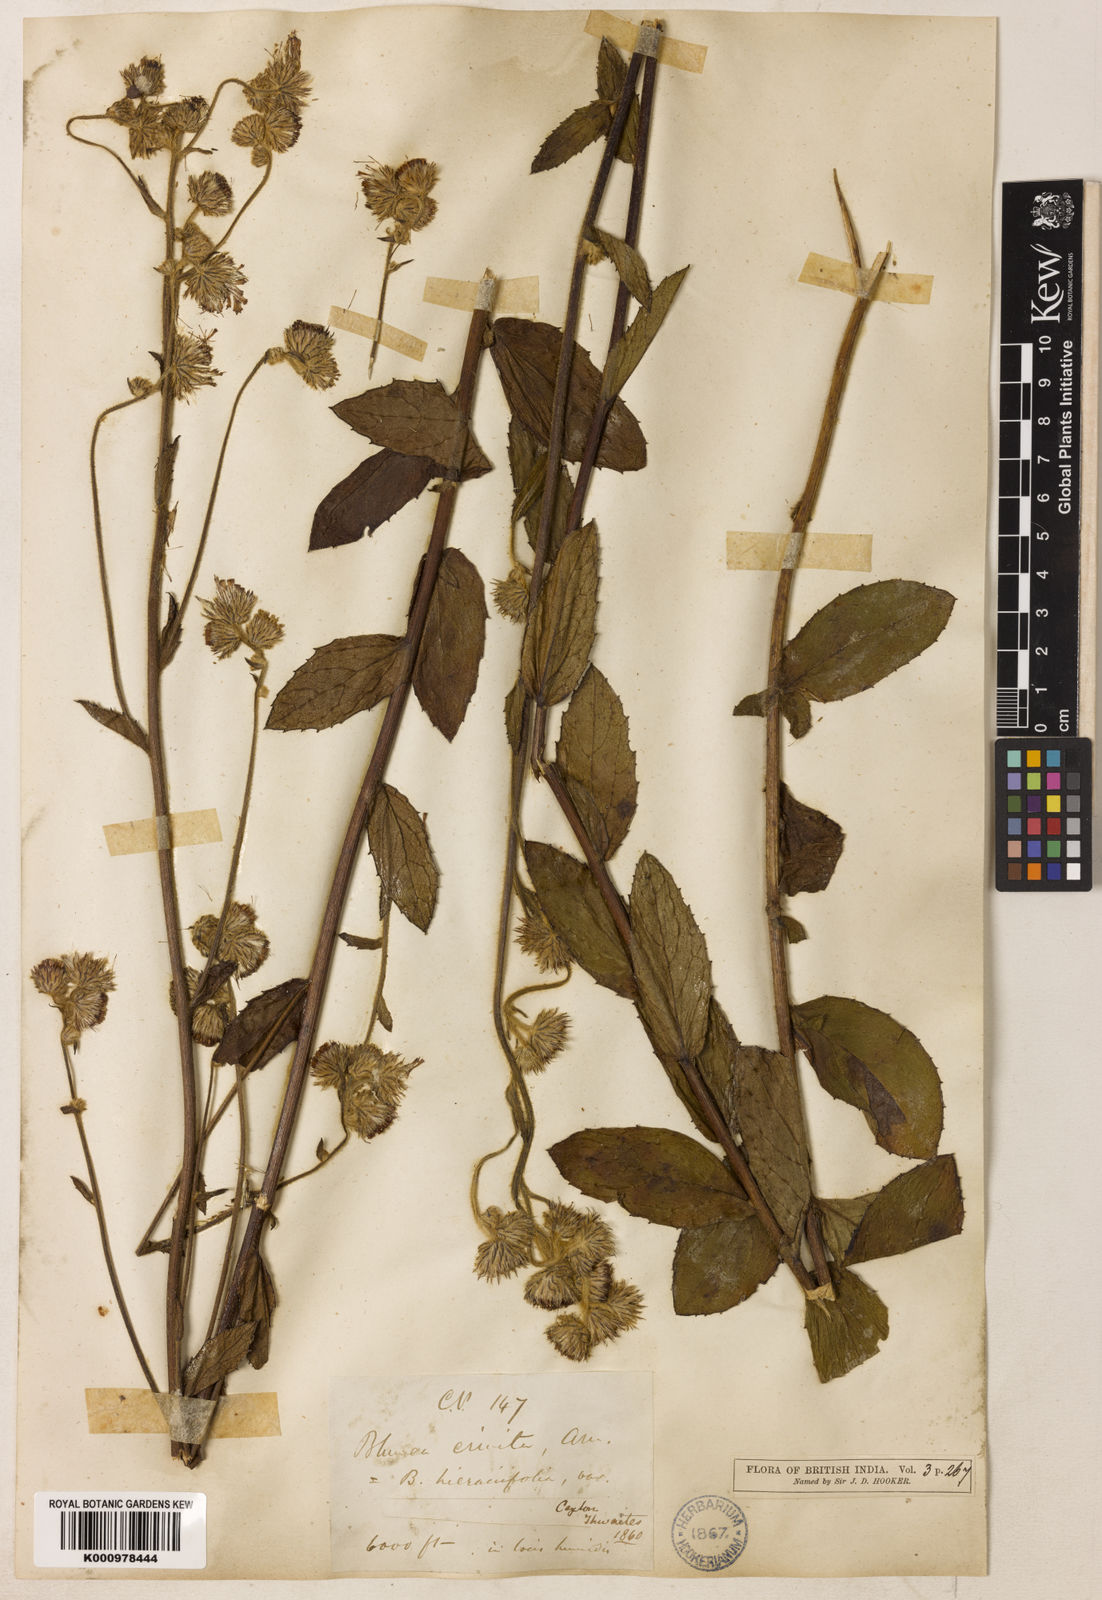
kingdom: Plantae
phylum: Tracheophyta
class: Magnoliopsida
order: Asterales
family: Asteraceae
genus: Blumea
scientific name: Blumea crinita
